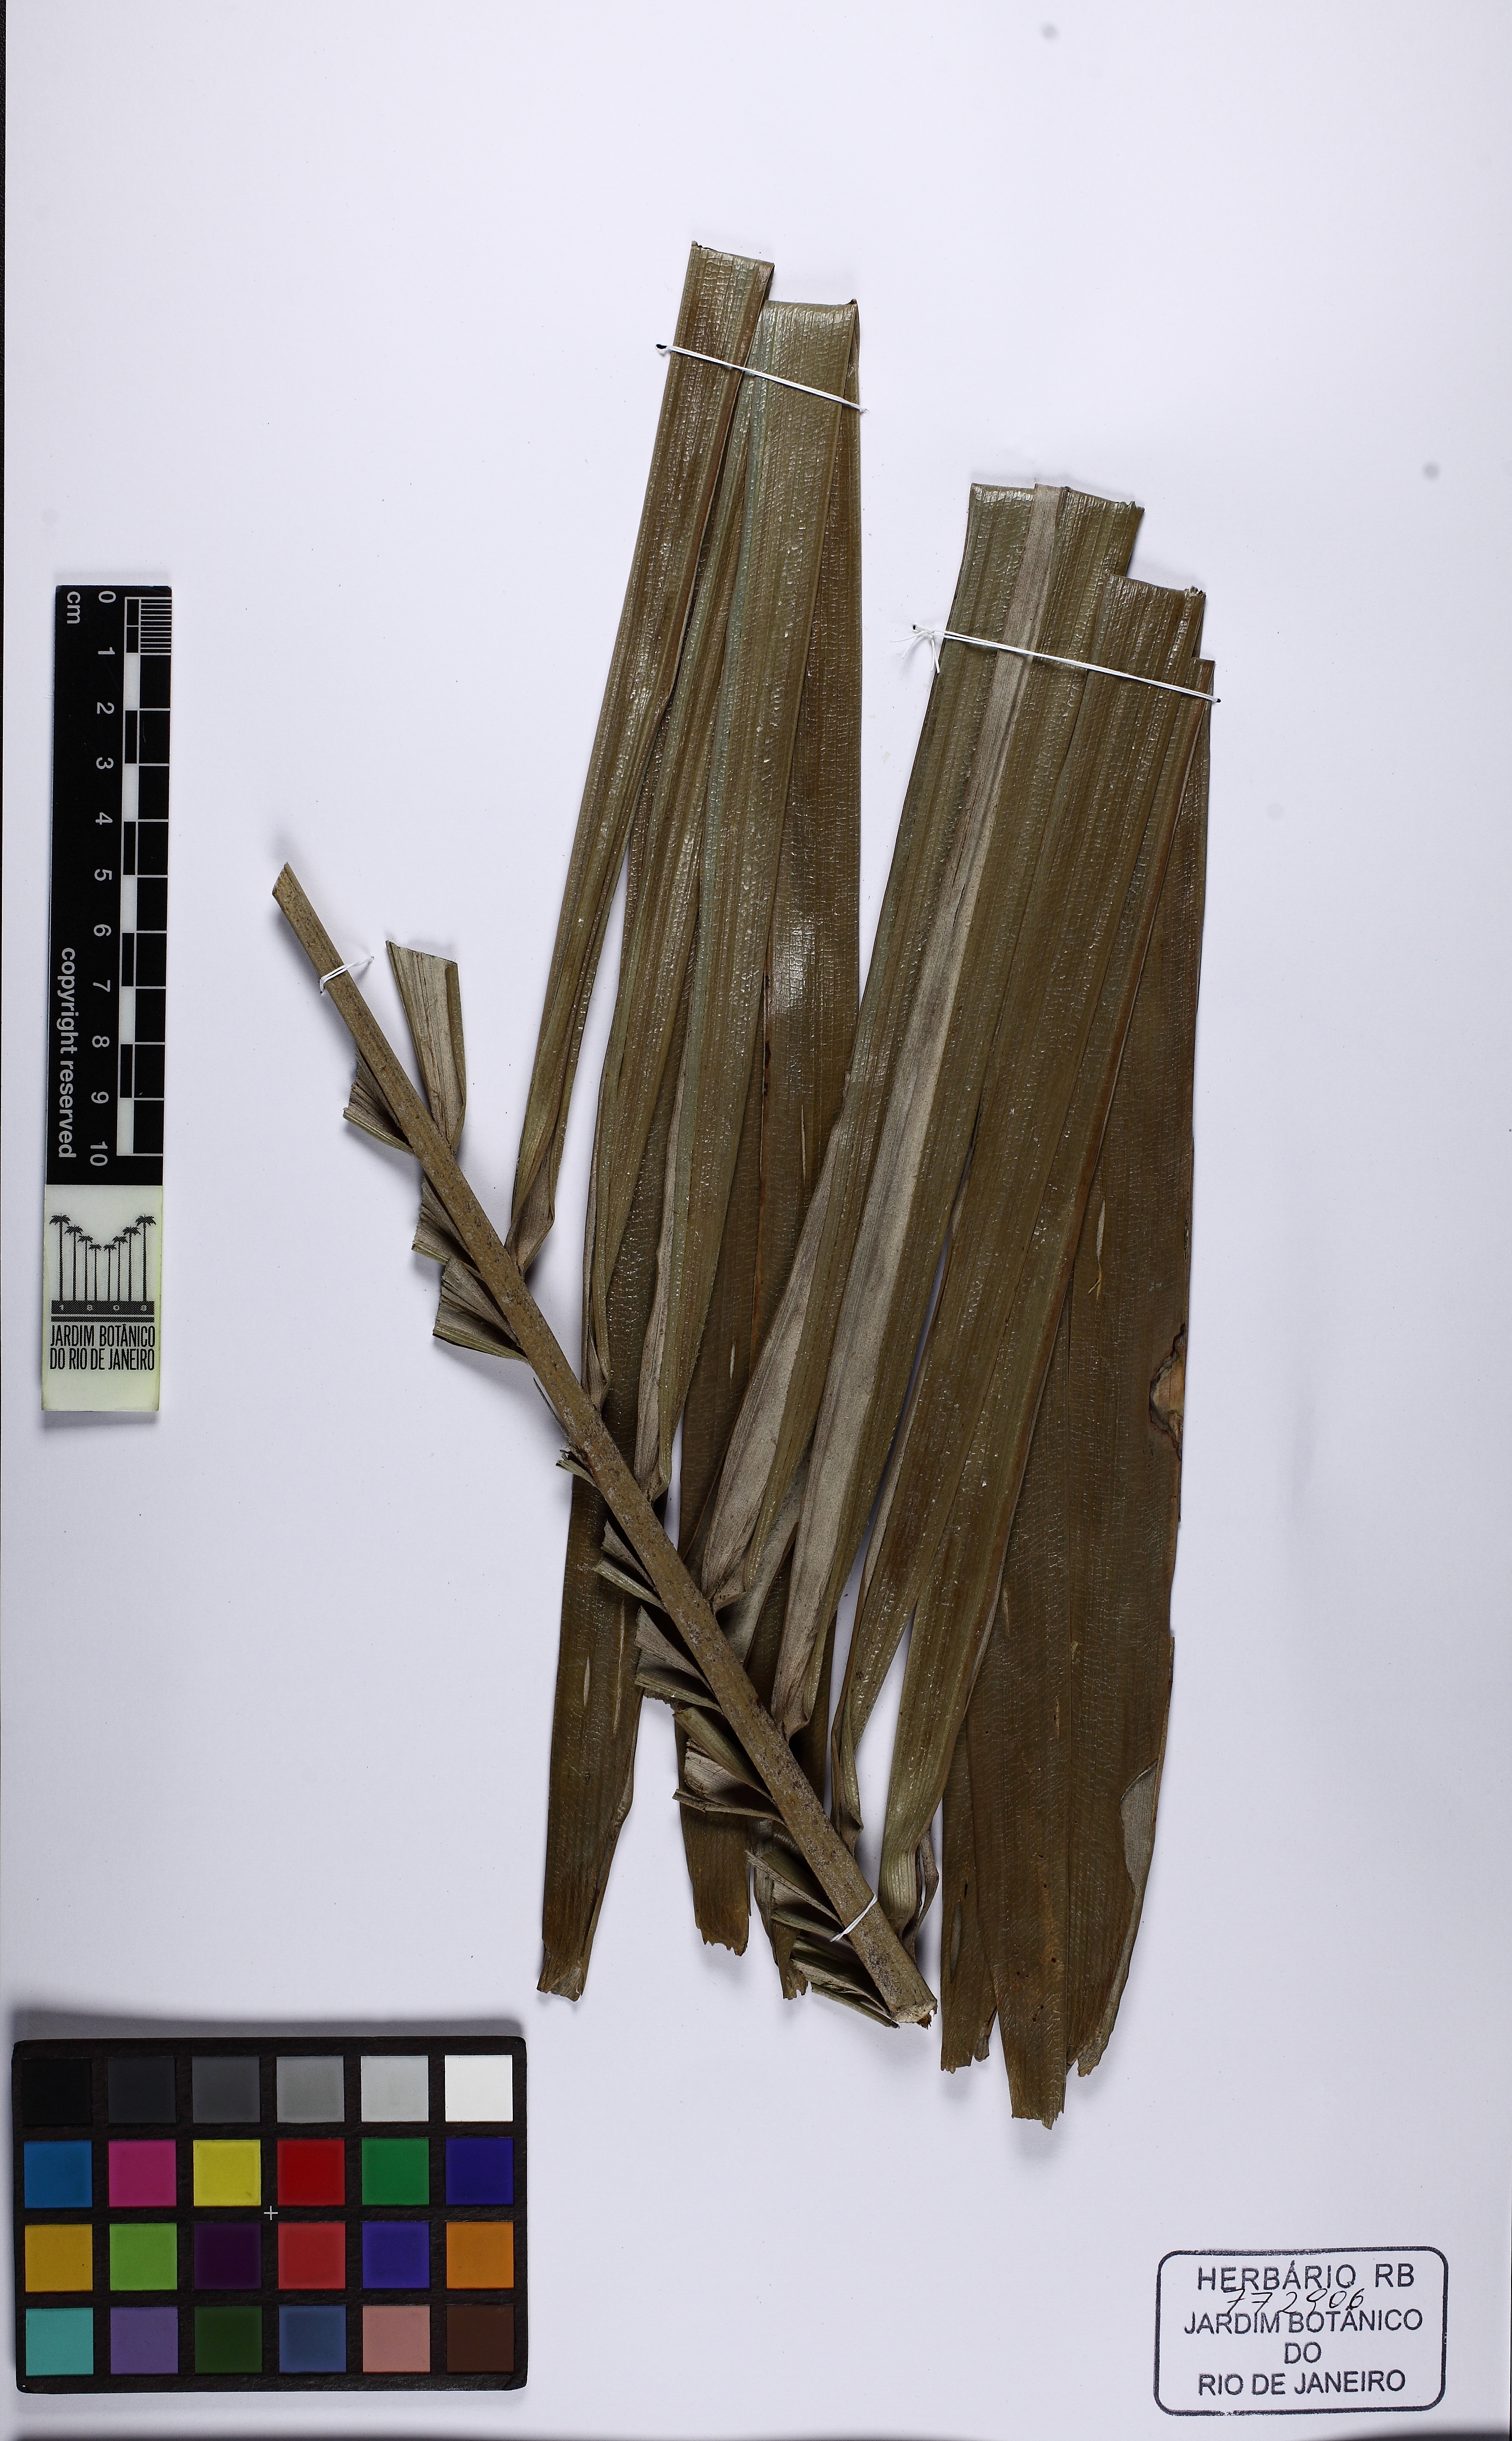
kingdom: Plantae
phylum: Tracheophyta
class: Liliopsida
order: Arecales
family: Arecaceae
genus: Allagoptera
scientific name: Allagoptera caudescens
